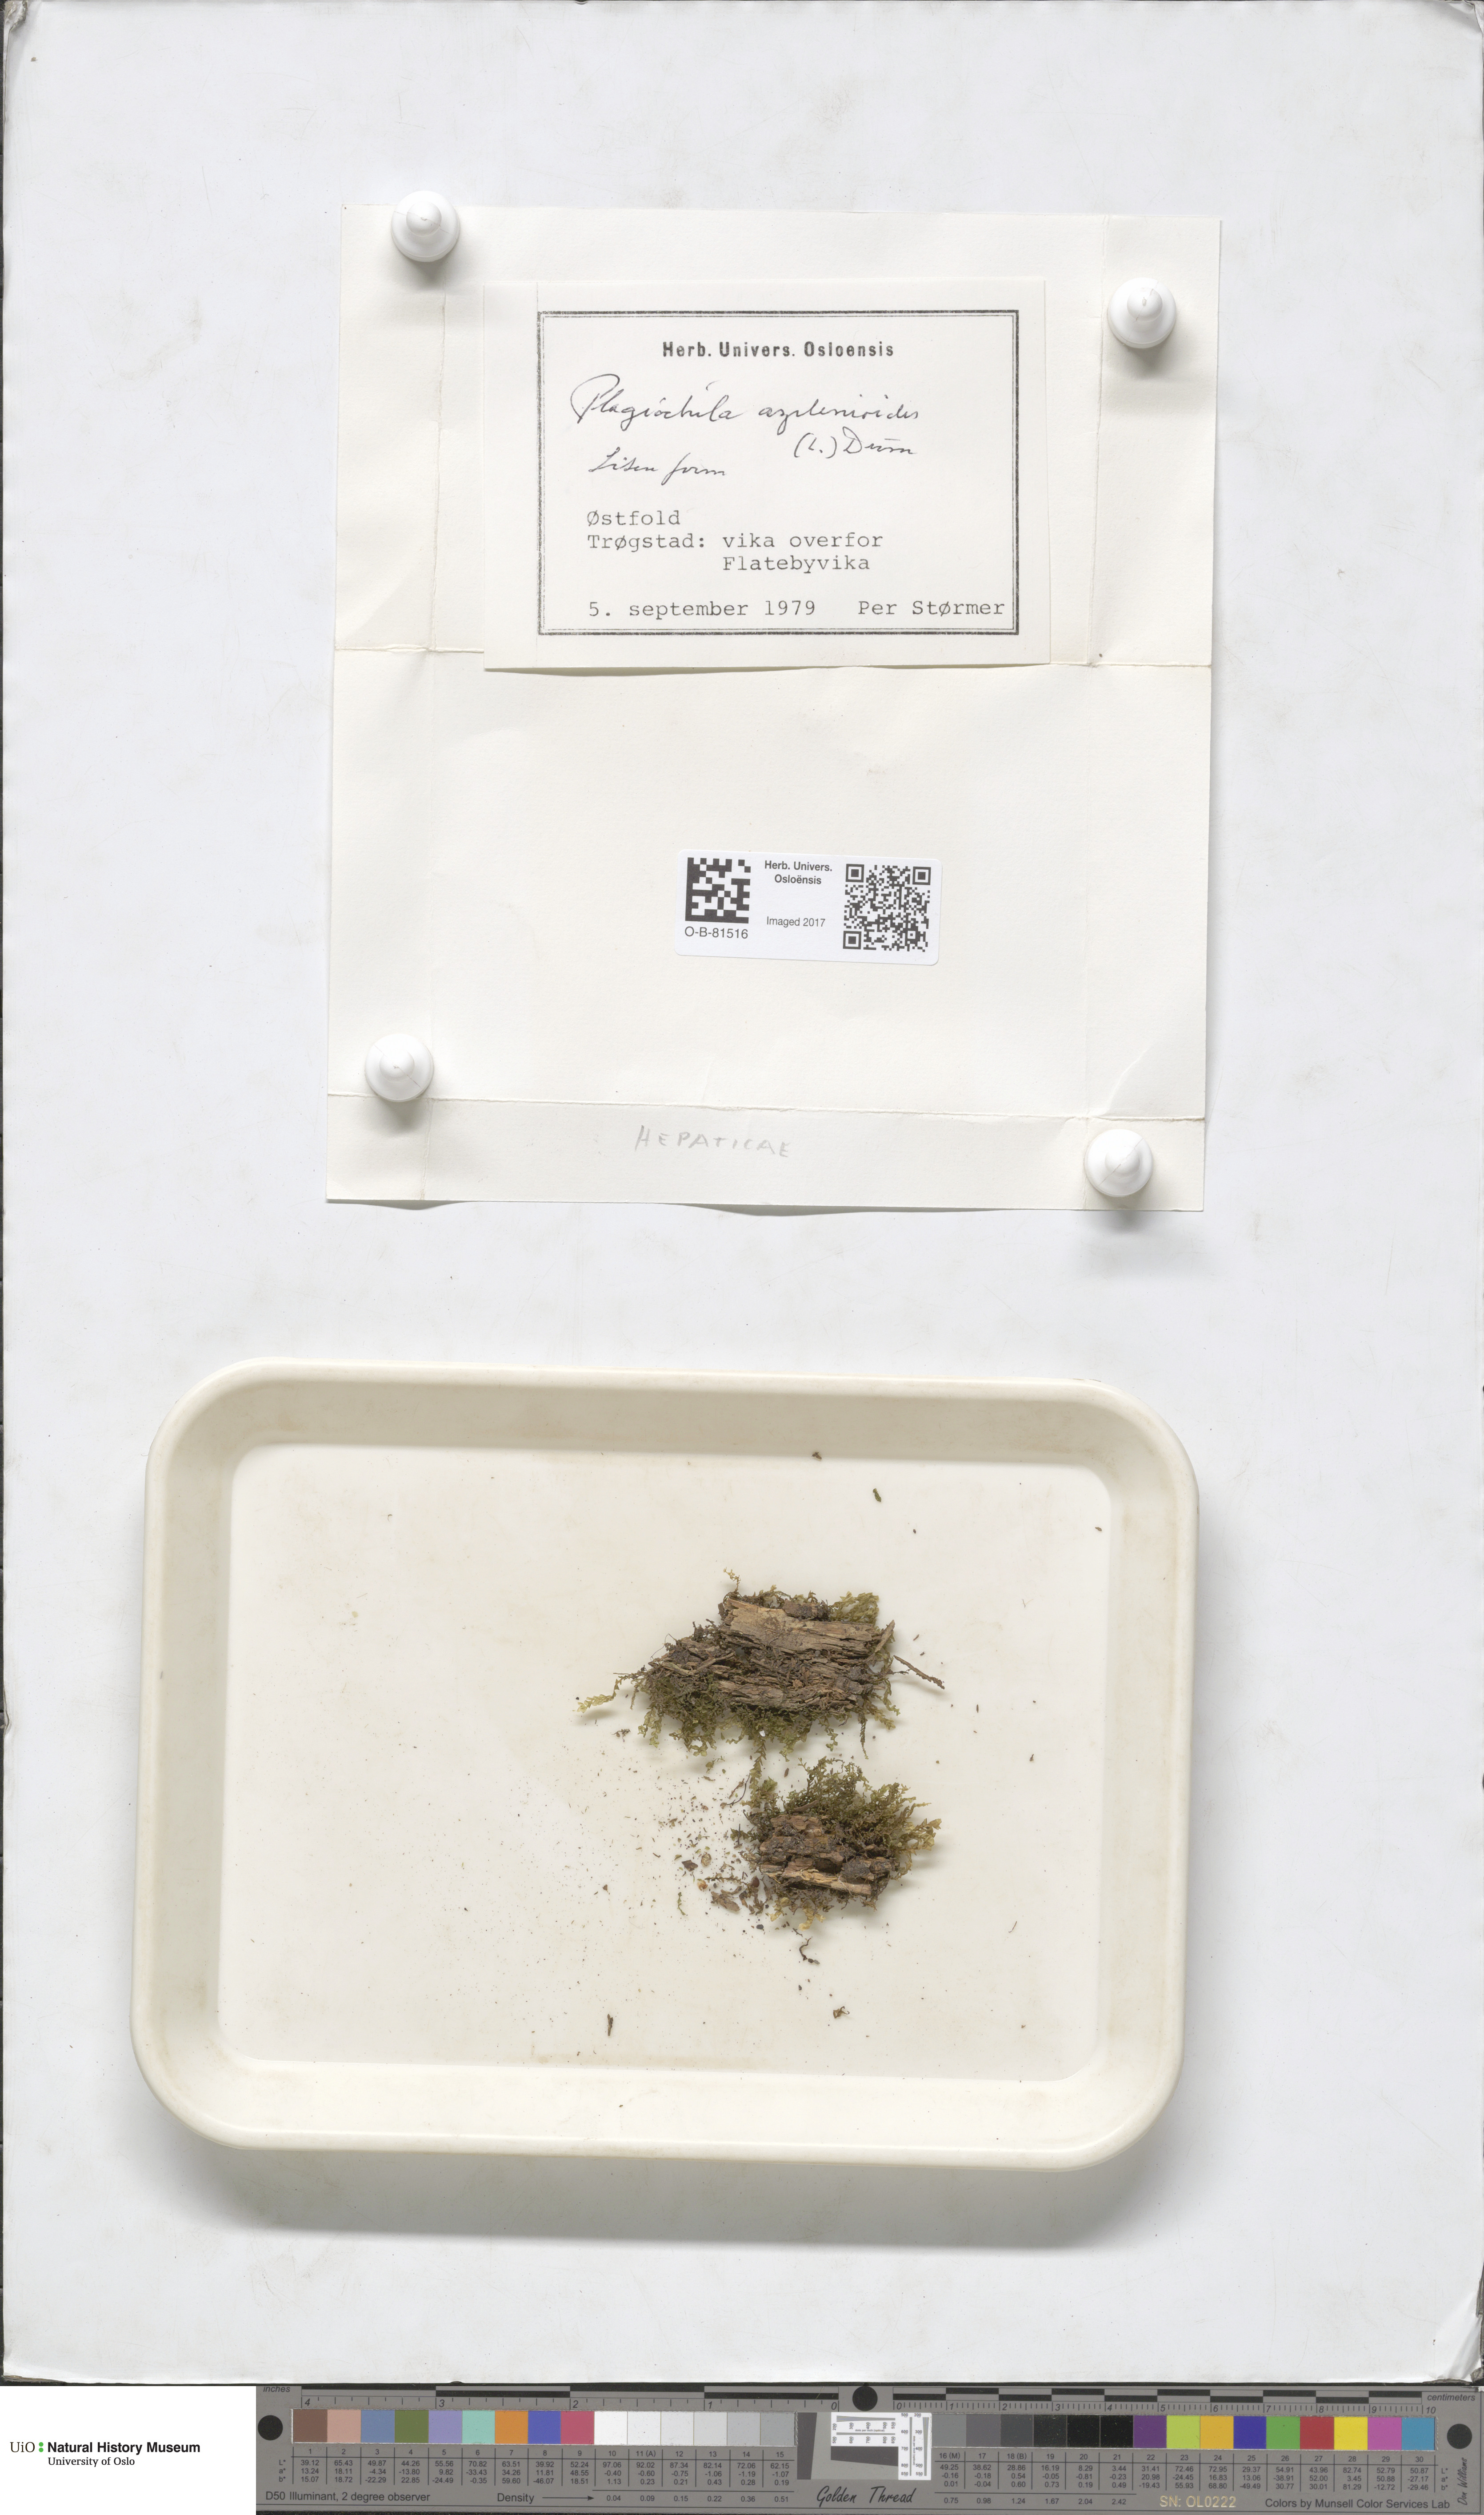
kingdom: Plantae
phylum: Marchantiophyta
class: Jungermanniopsida
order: Jungermanniales
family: Plagiochilaceae
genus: Plagiochila
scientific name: Plagiochila asplenioides
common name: Greater featherwort
